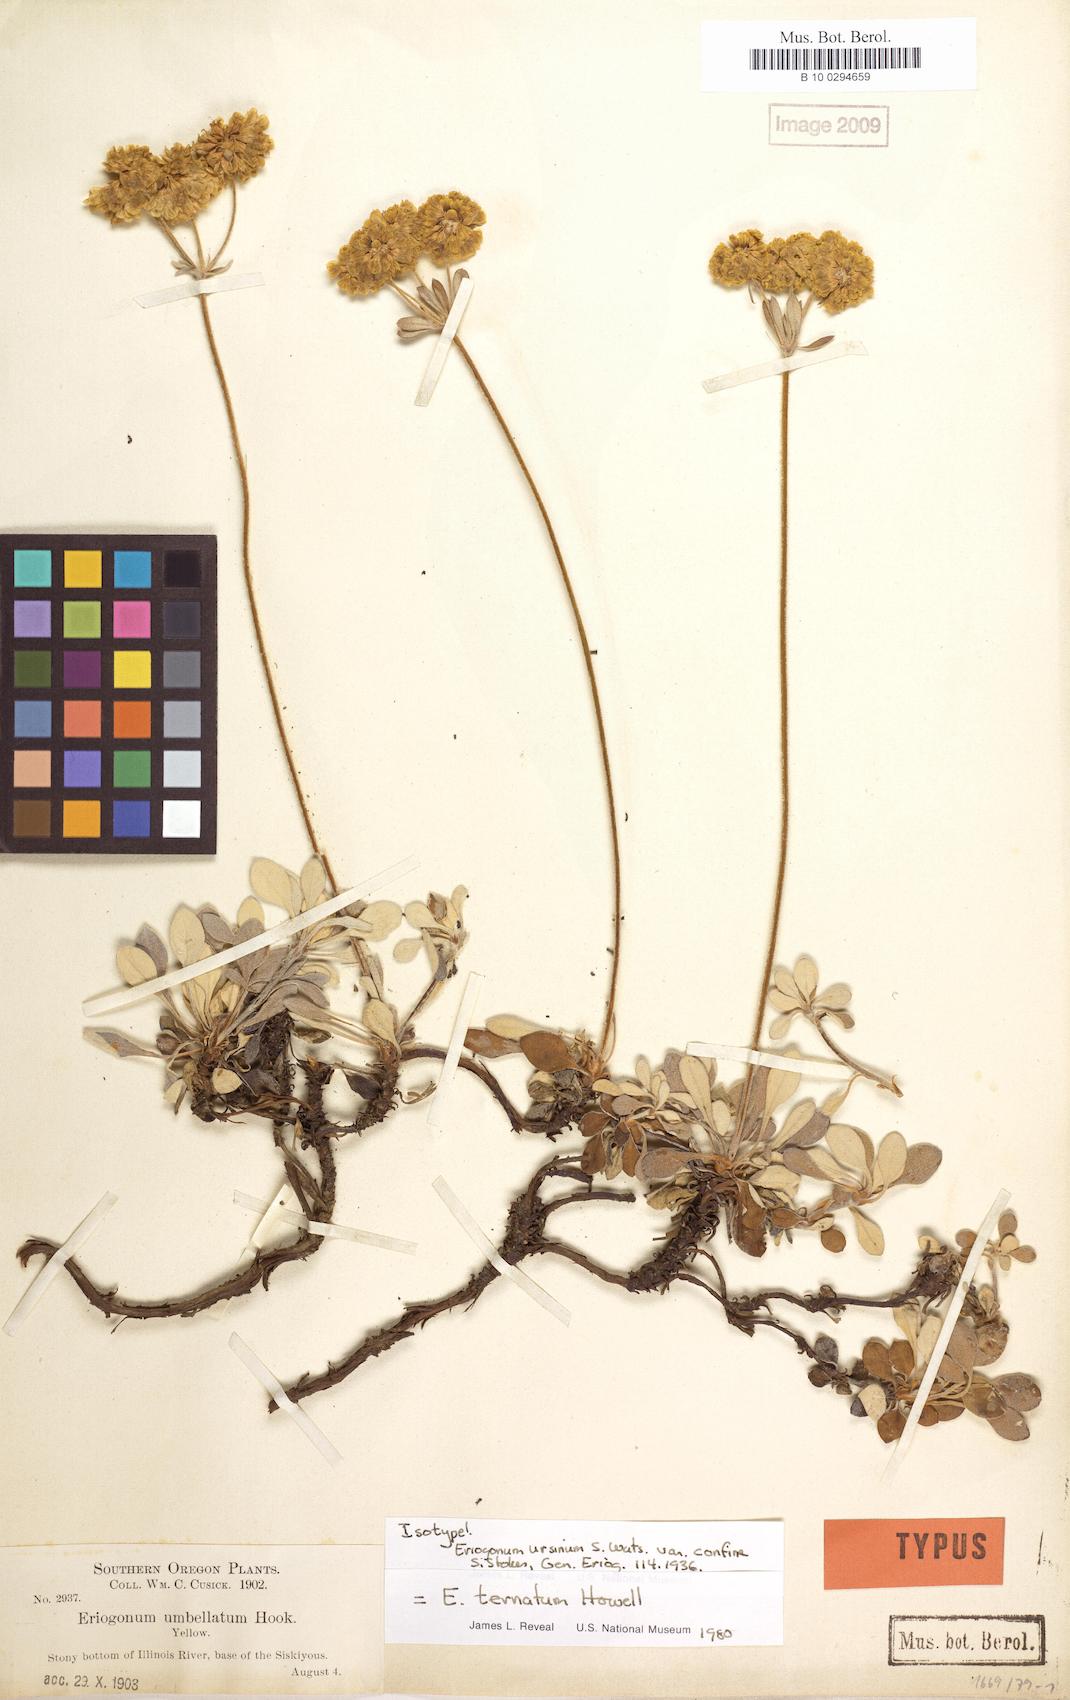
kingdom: Plantae
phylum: Tracheophyta
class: Magnoliopsida
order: Caryophyllales
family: Polygonaceae
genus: Eriogonum
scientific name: Eriogonum ternatum
